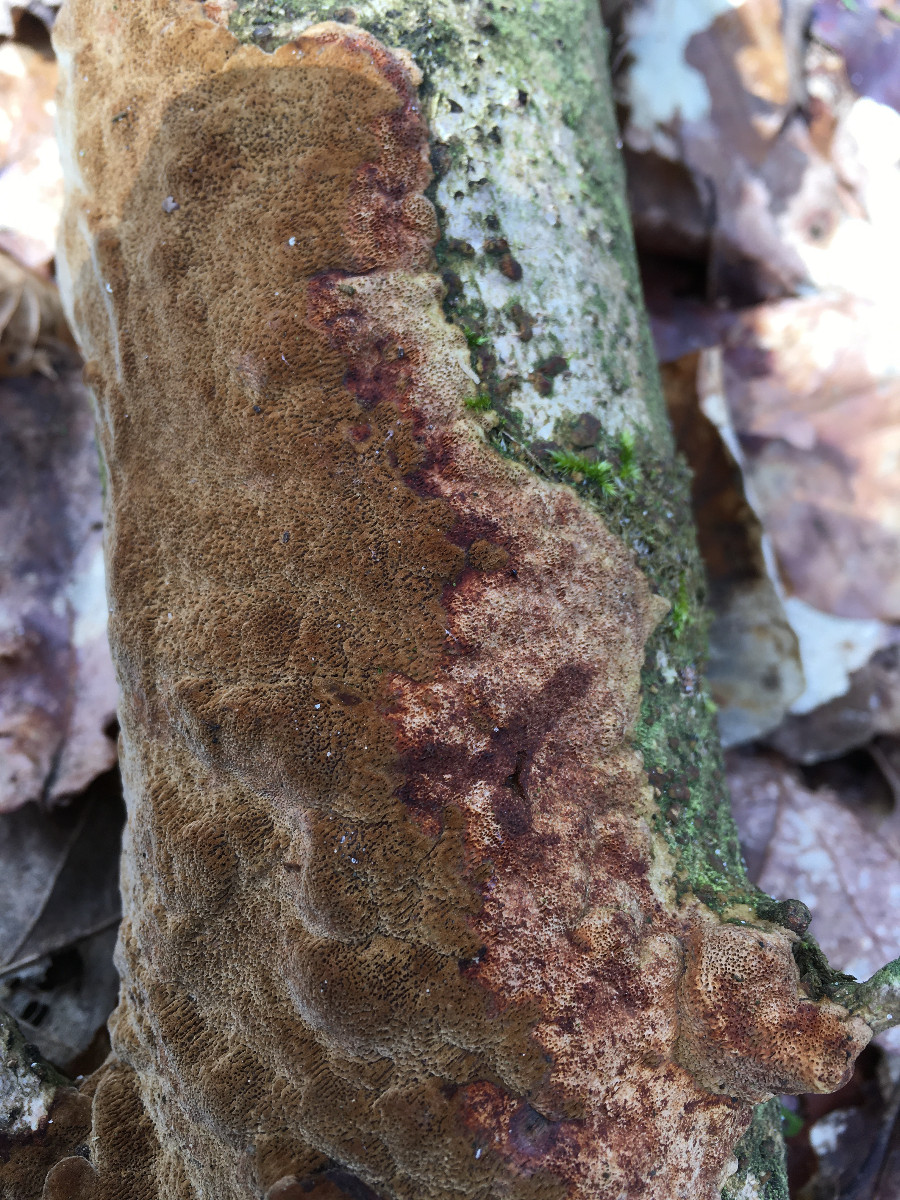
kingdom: Fungi
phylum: Basidiomycota
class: Agaricomycetes
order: Hymenochaetales
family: Hymenochaetaceae
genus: Fuscoporia
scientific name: Fuscoporia ferrea
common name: skorpe-ildporesvamp
